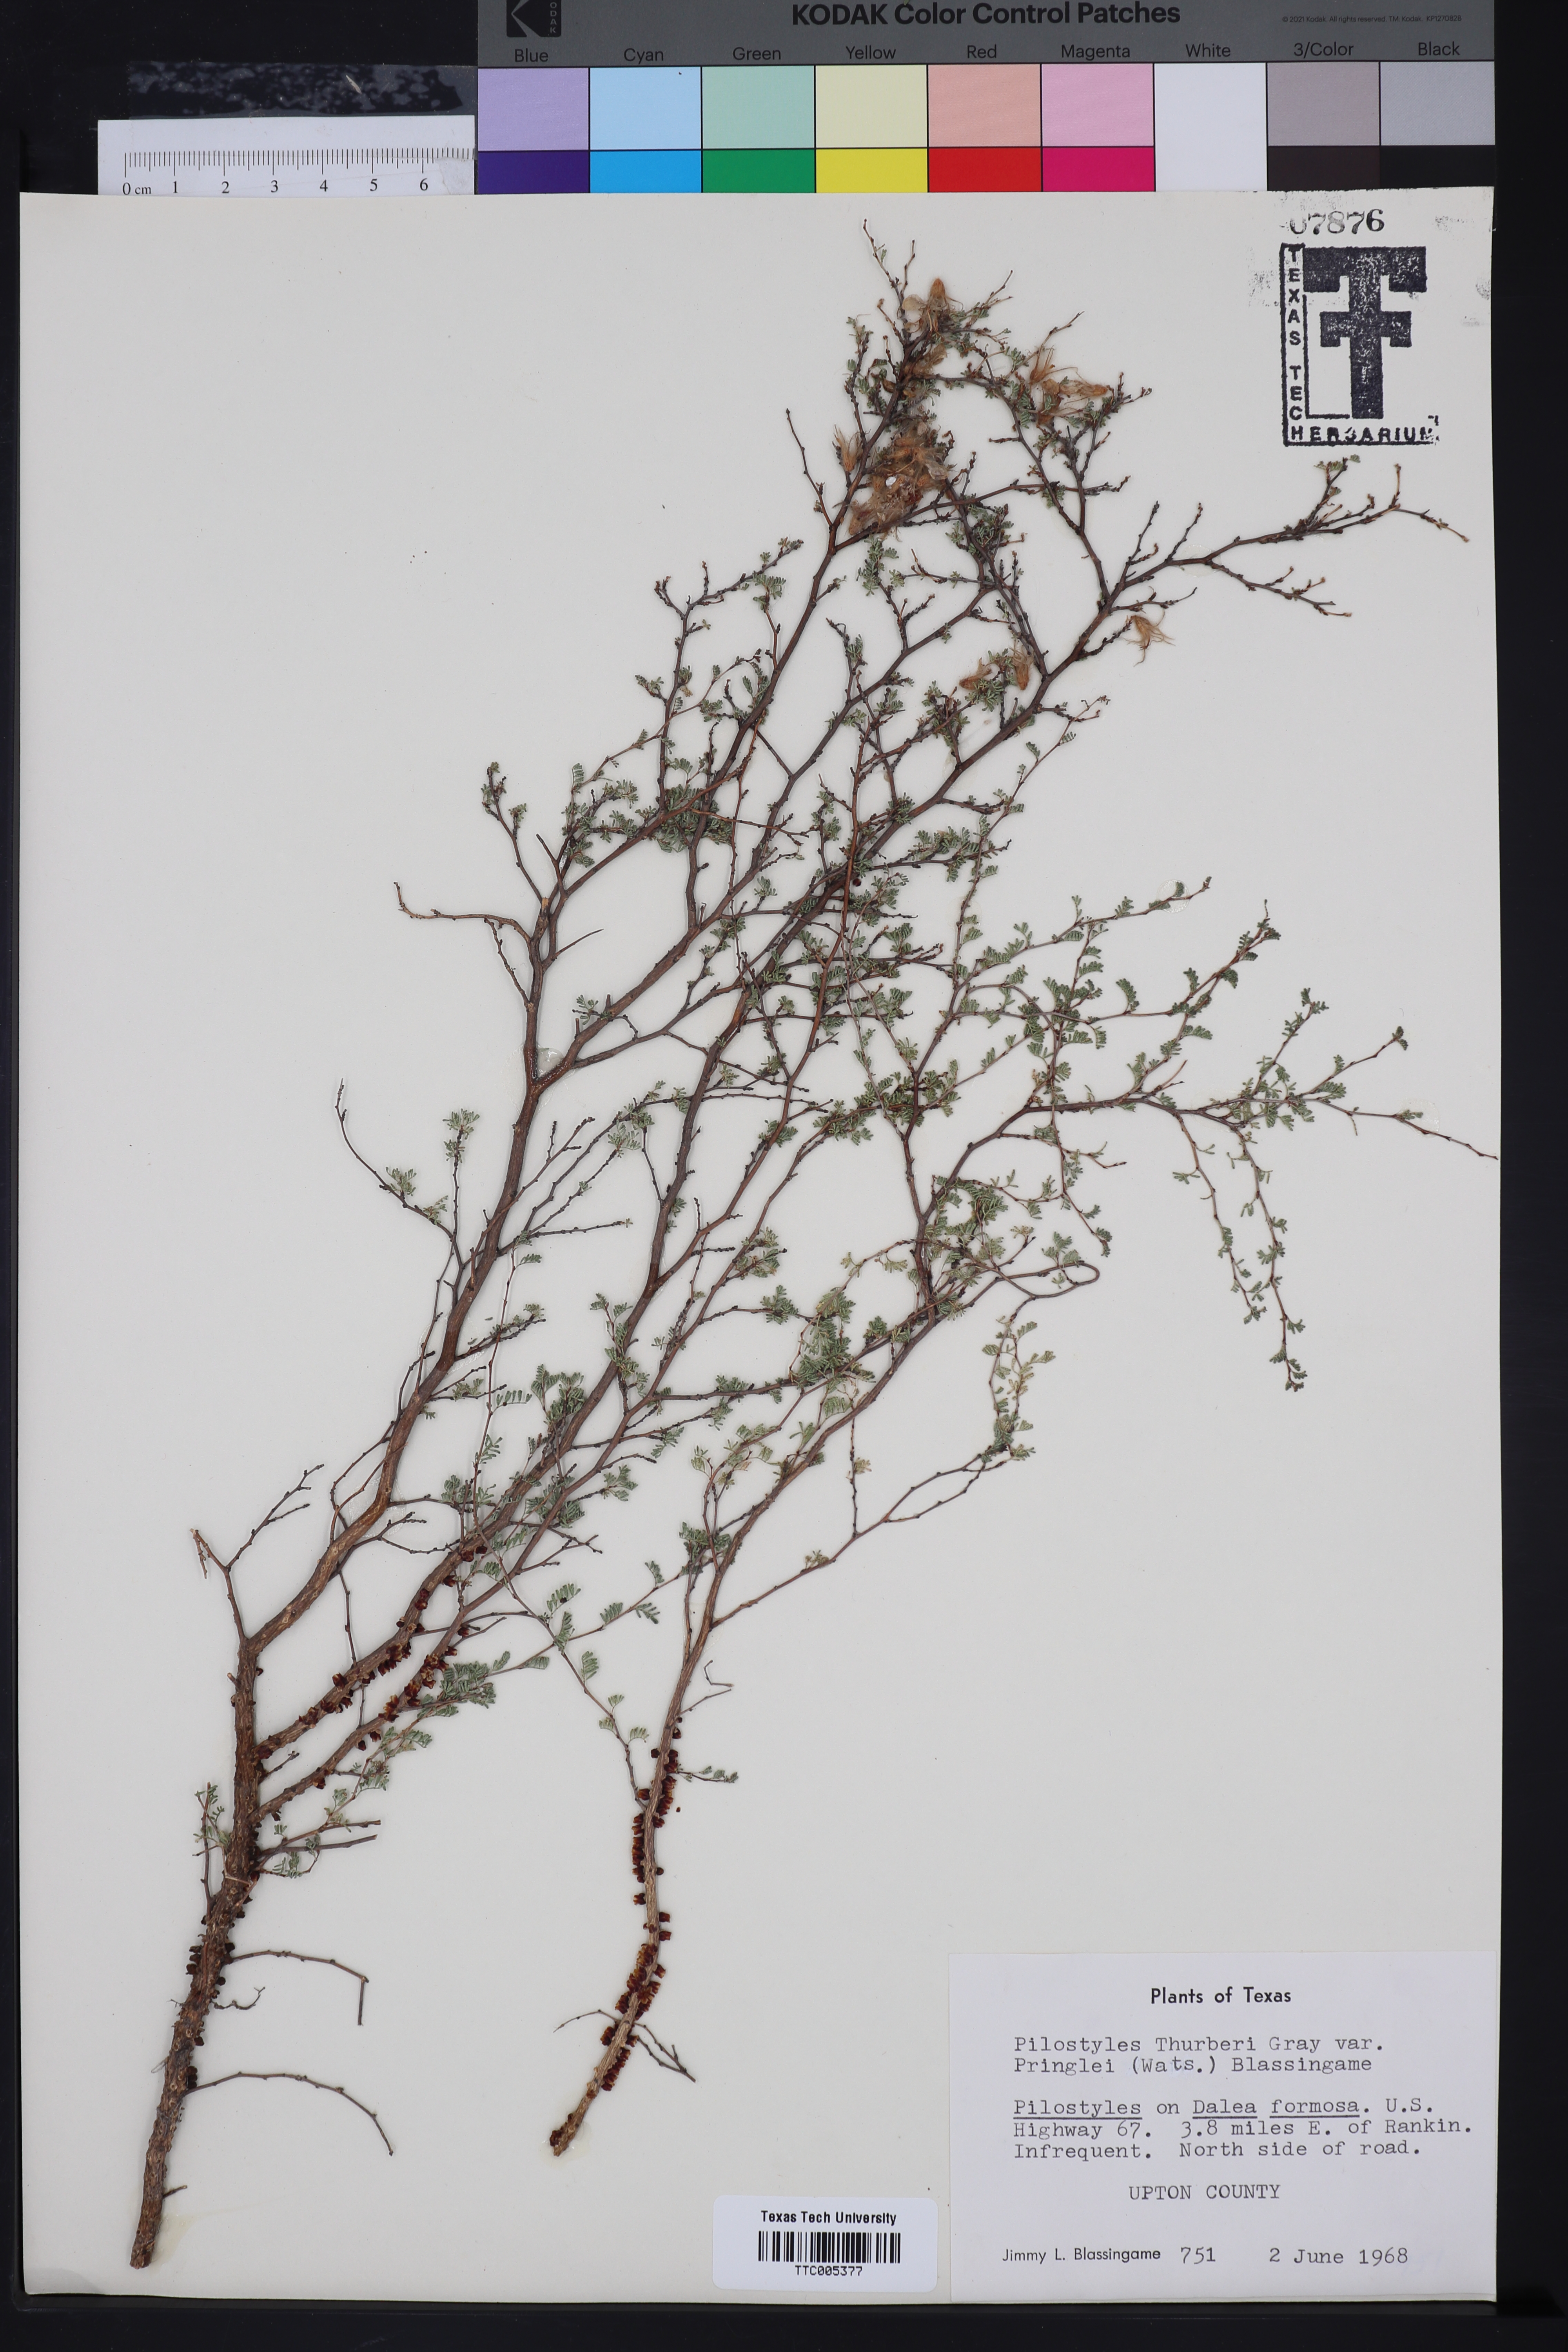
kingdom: Plantae
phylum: Tracheophyta
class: Magnoliopsida
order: Cucurbitales
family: Apodanthaceae
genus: Pilostyles
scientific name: Pilostyles thurberi
